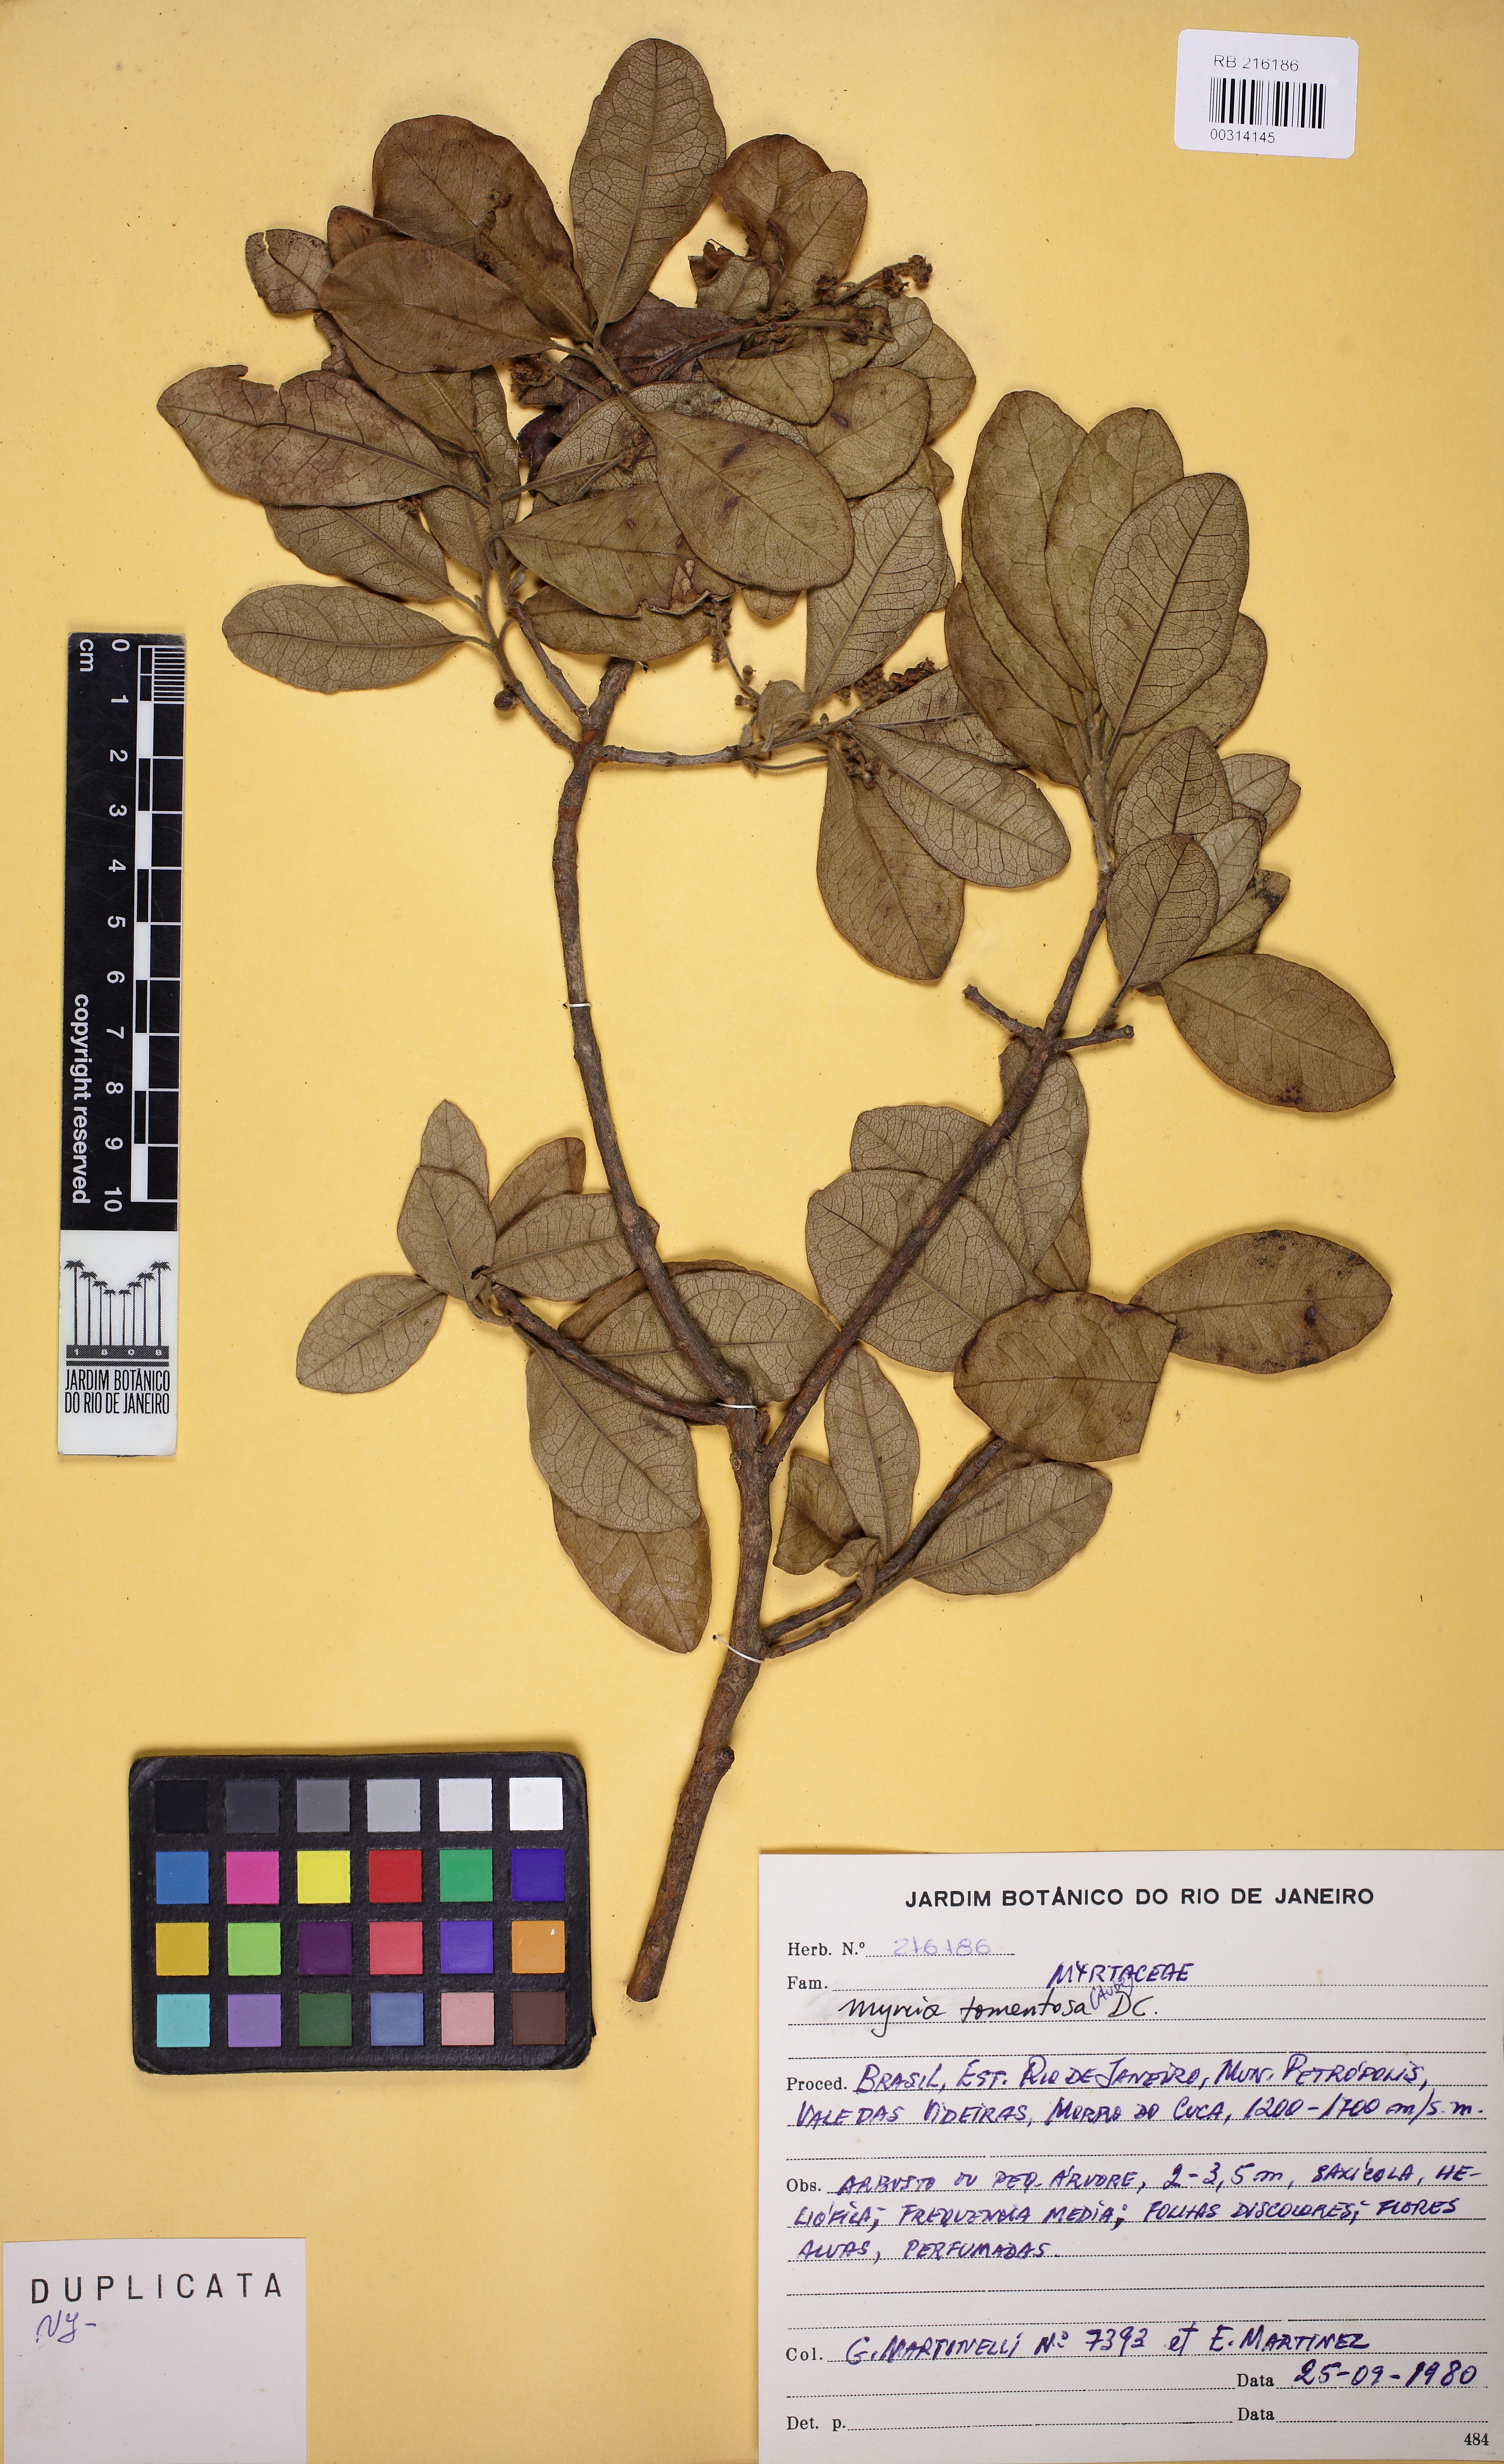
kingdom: Plantae
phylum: Tracheophyta
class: Magnoliopsida
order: Myrtales
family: Myrtaceae
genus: Myrcia
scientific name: Myrcia tomentosa
